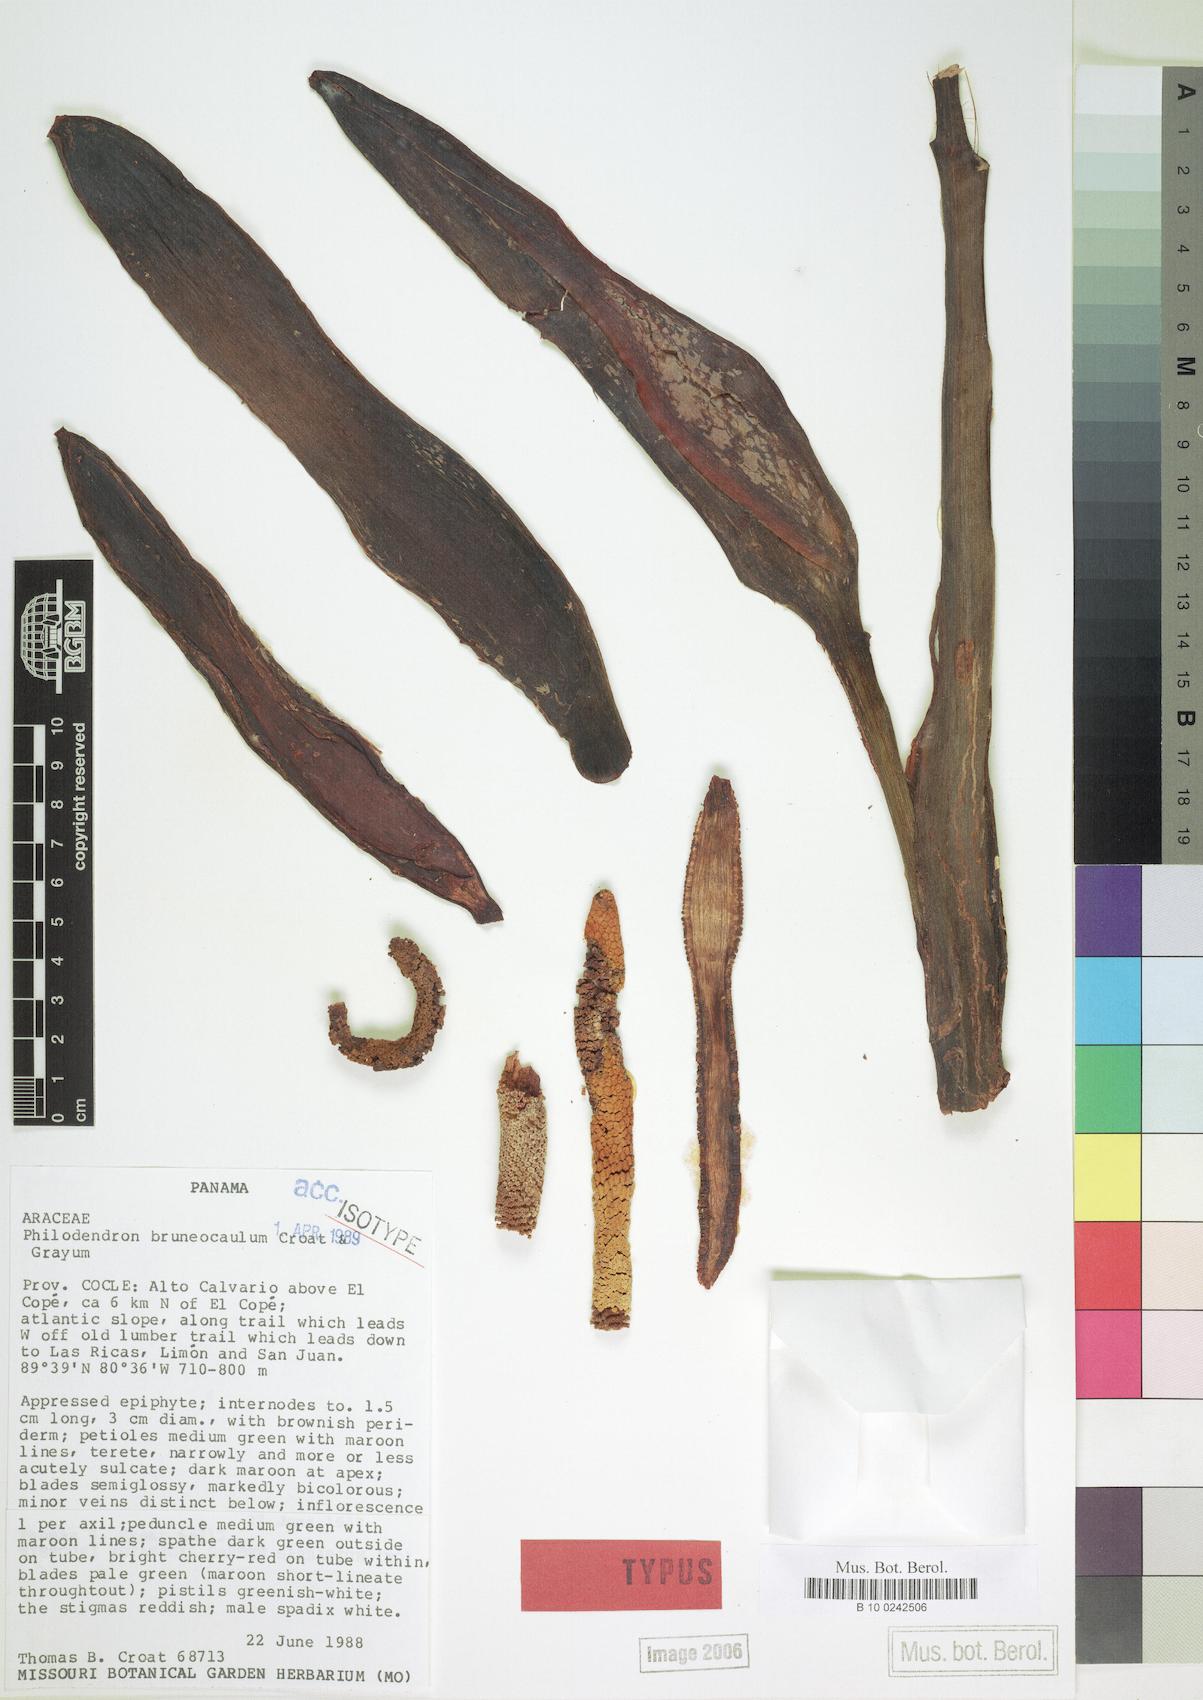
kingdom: Plantae
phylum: Tracheophyta
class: Liliopsida
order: Alismatales
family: Araceae
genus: Philodendron
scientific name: Philodendron brunneicaule
